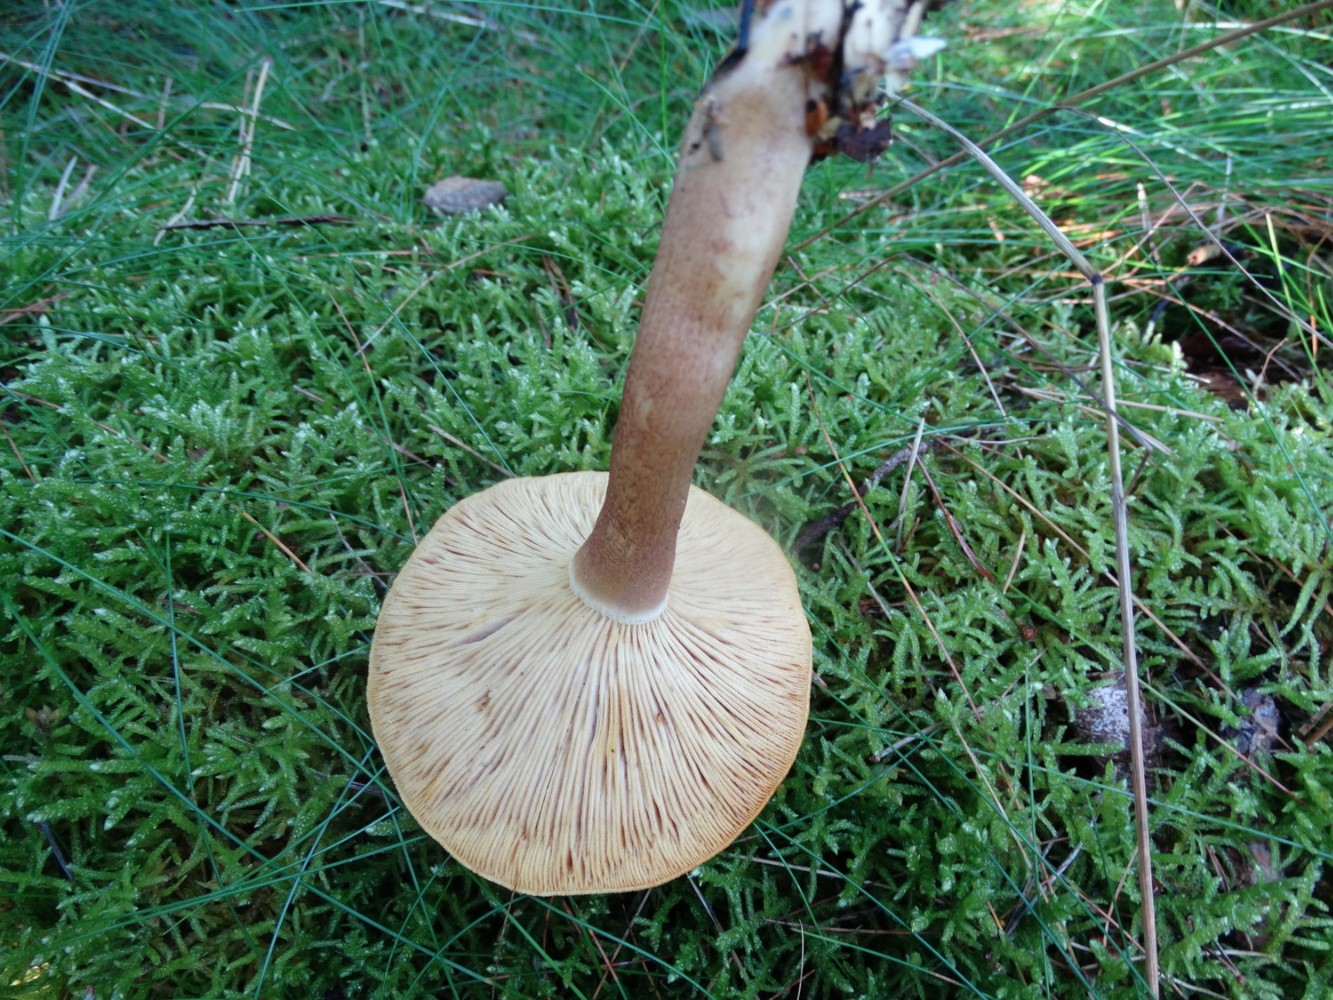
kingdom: Fungi
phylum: Basidiomycota
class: Agaricomycetes
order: Agaricales
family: Tricholomataceae
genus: Tricholomopsis
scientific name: Tricholomopsis rutilans
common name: purpur-væbnerhat
